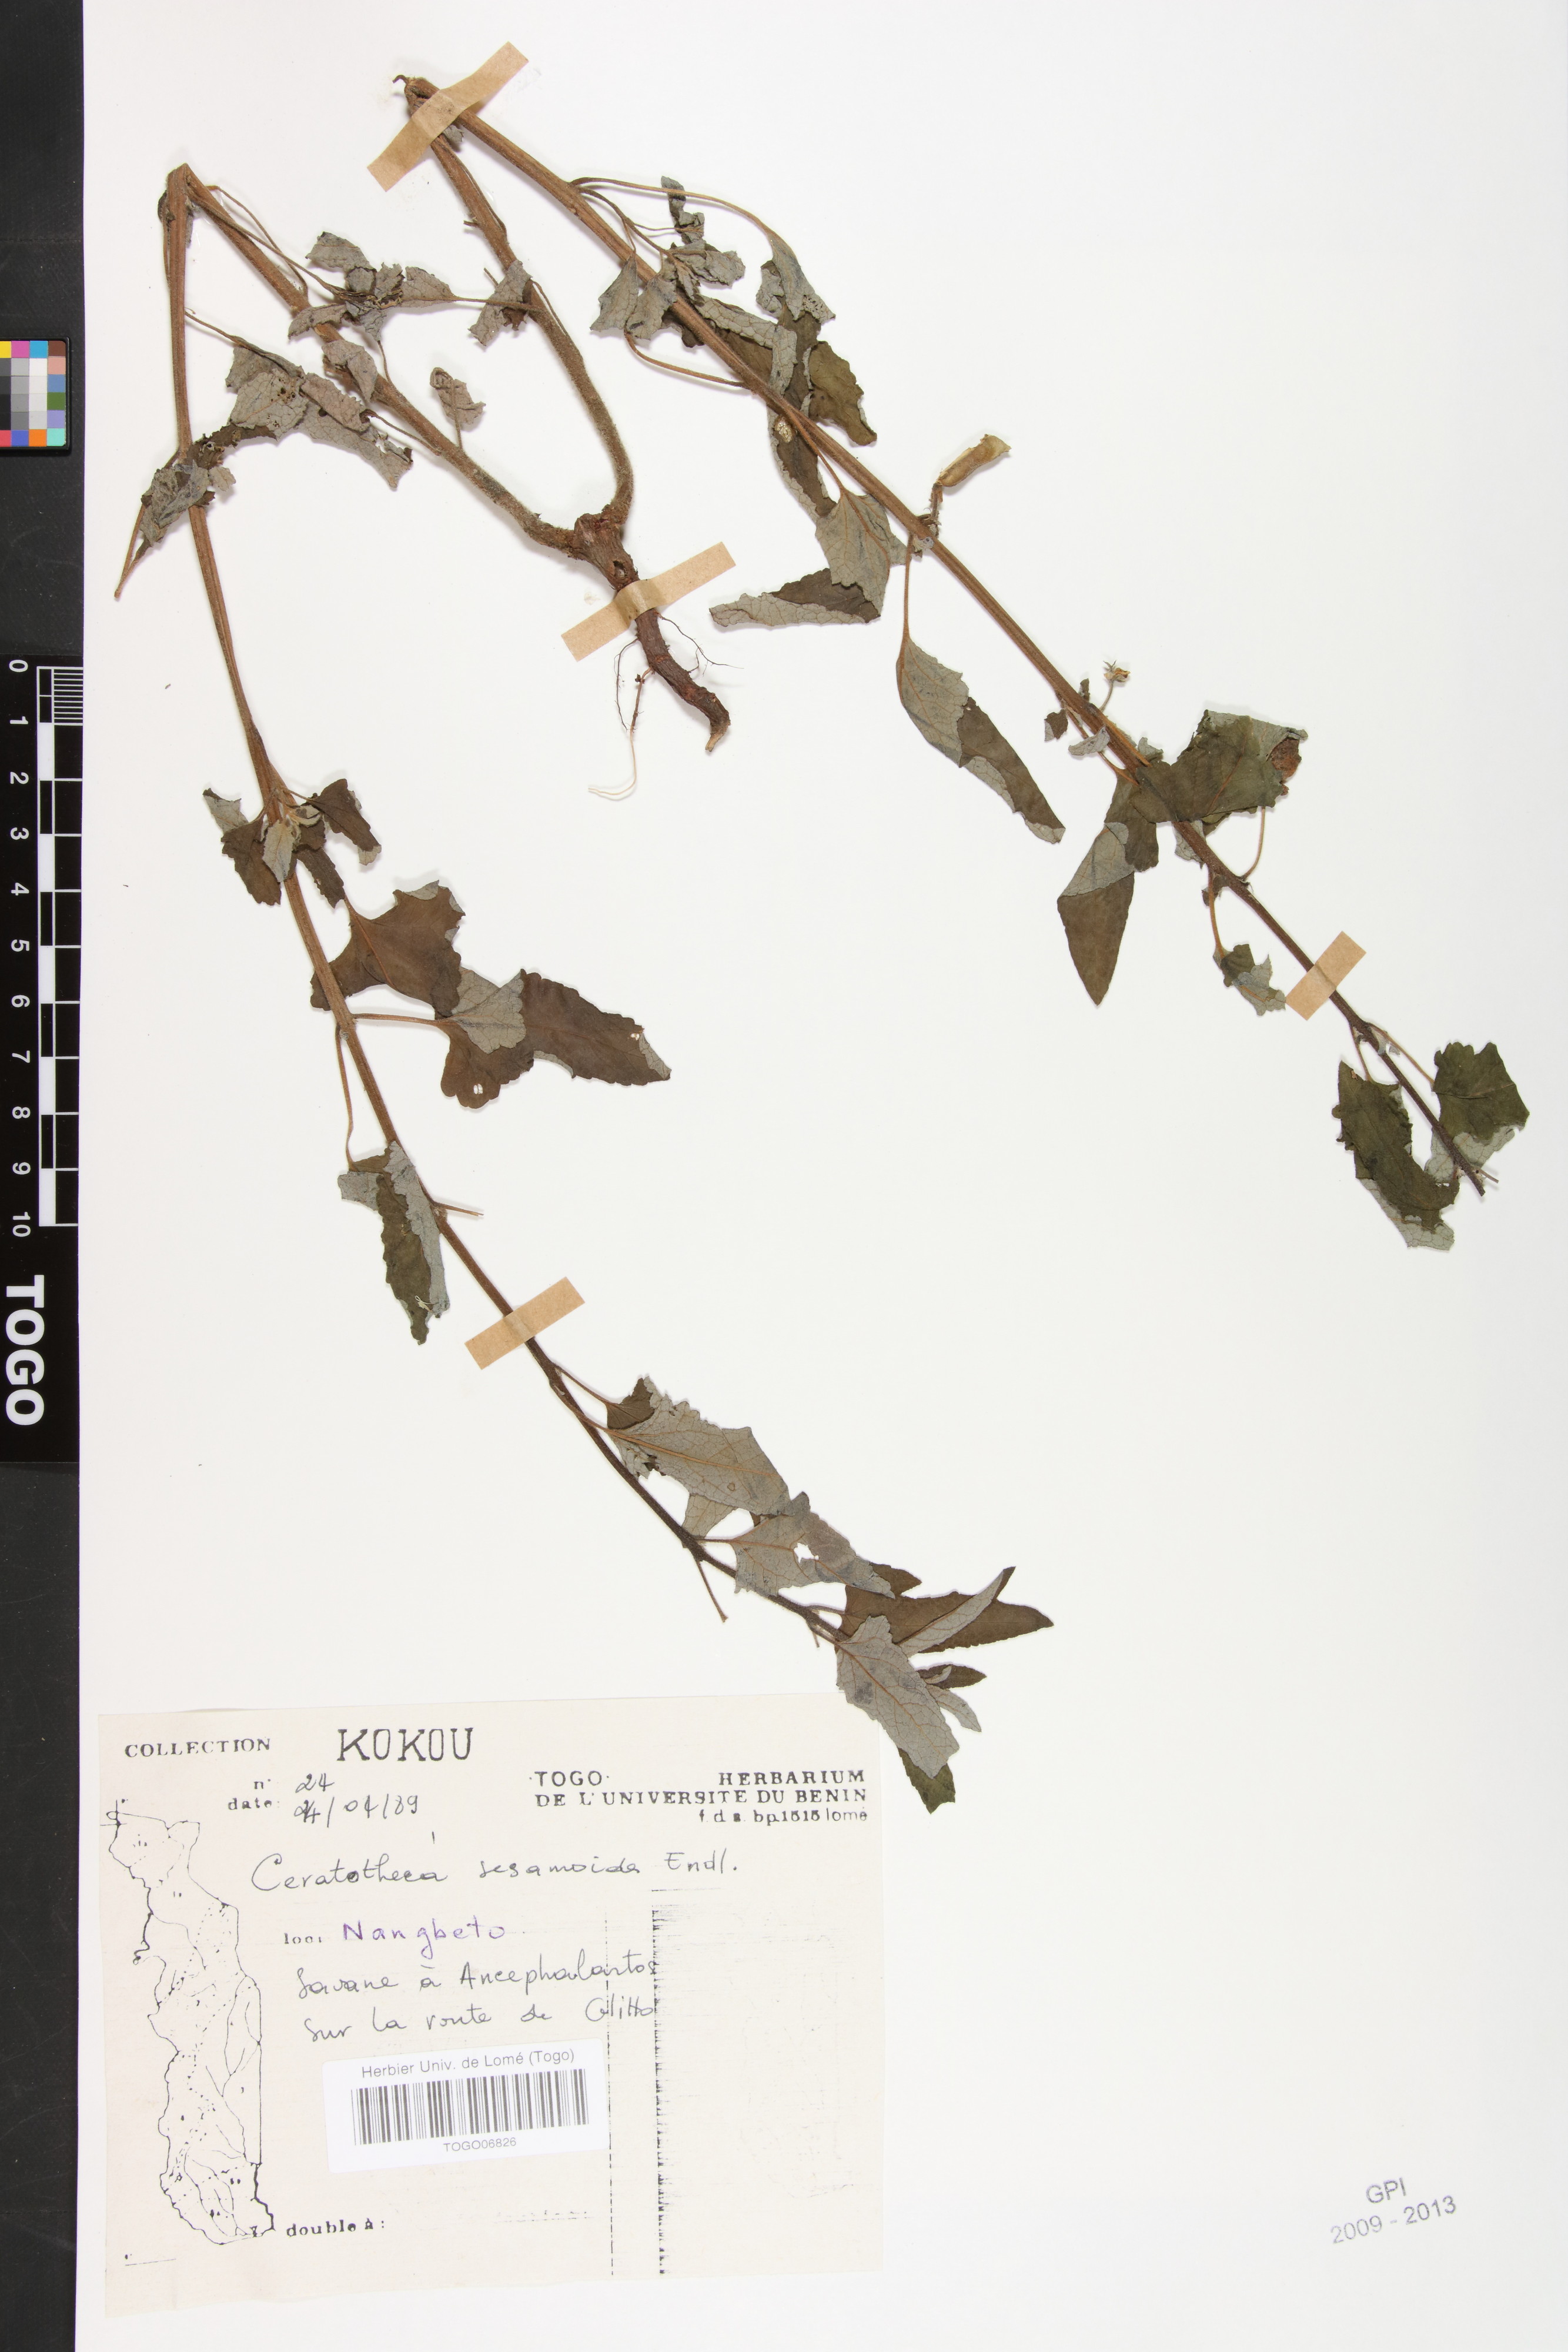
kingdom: Plantae
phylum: Tracheophyta
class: Magnoliopsida
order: Lamiales
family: Pedaliaceae
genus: Sesamum
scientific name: Sesamum sesamoides
